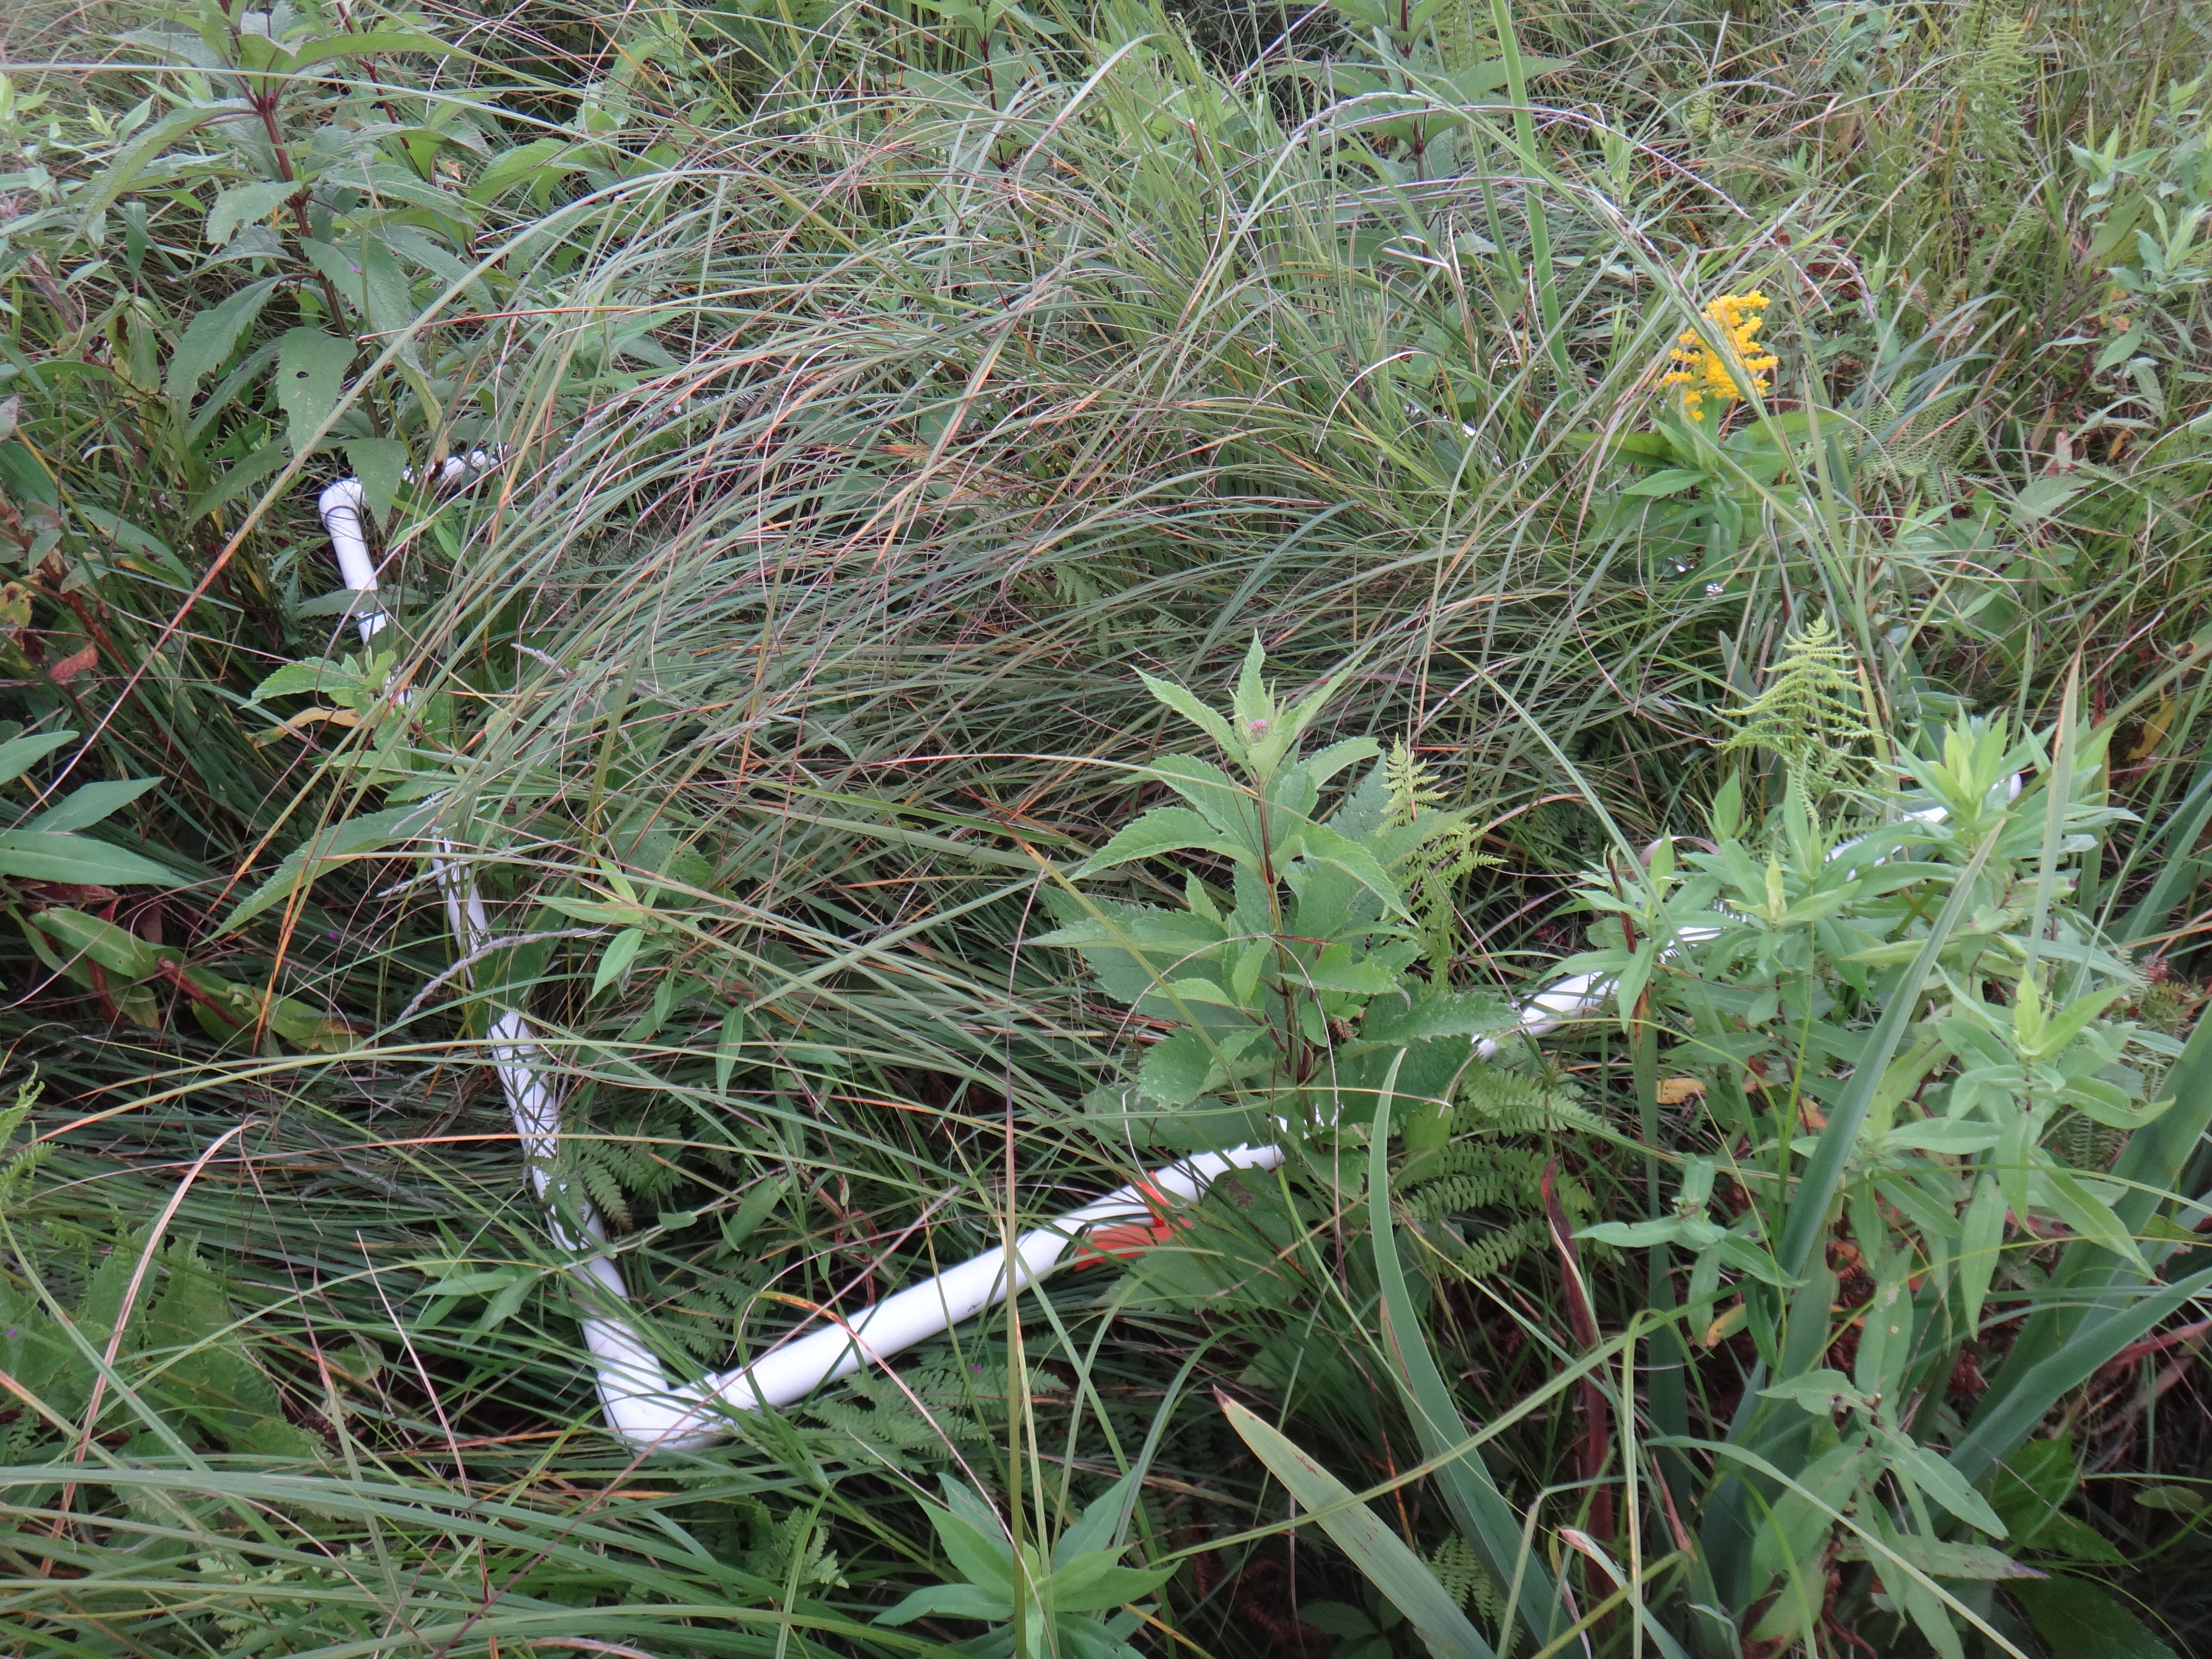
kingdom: Plantae
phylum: Tracheophyta
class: Liliopsida
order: Poales
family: Poaceae
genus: Andropogon
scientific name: Andropogon gerardi
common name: Big bluestem
